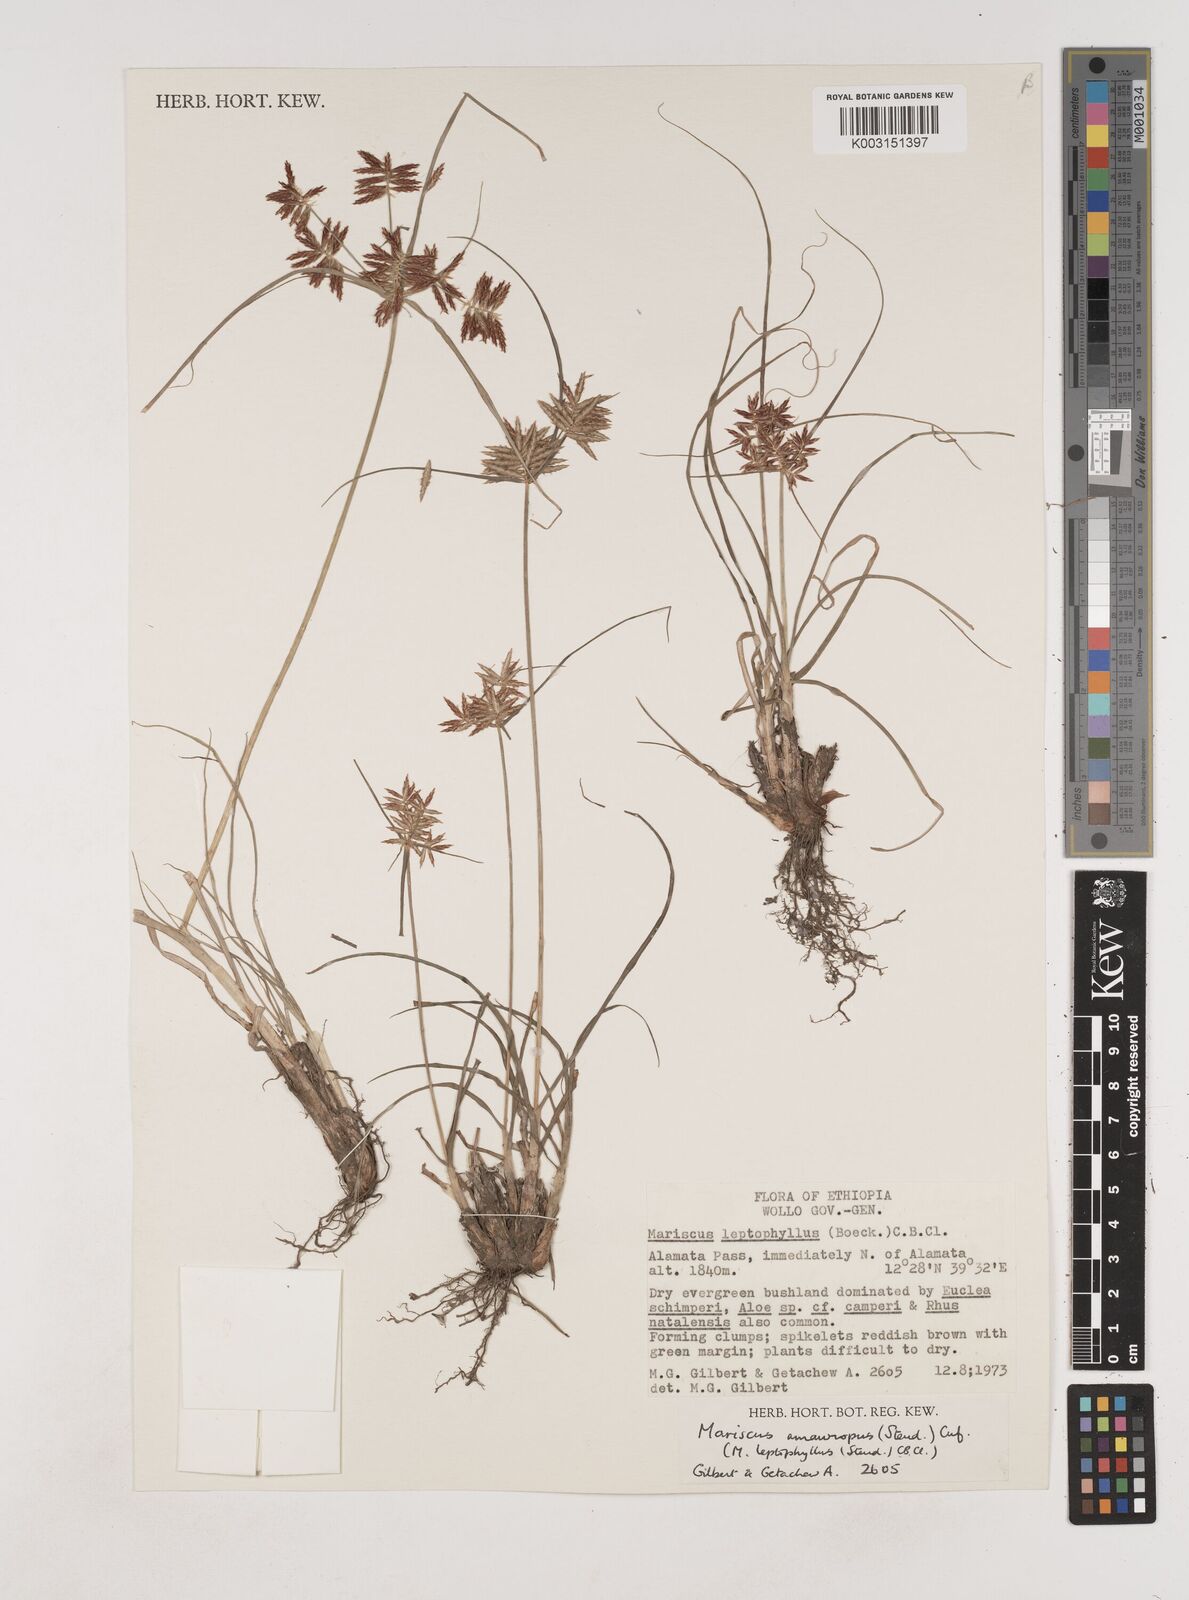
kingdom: Plantae
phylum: Tracheophyta
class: Liliopsida
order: Poales
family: Cyperaceae
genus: Cyperus
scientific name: Cyperus amauropus
